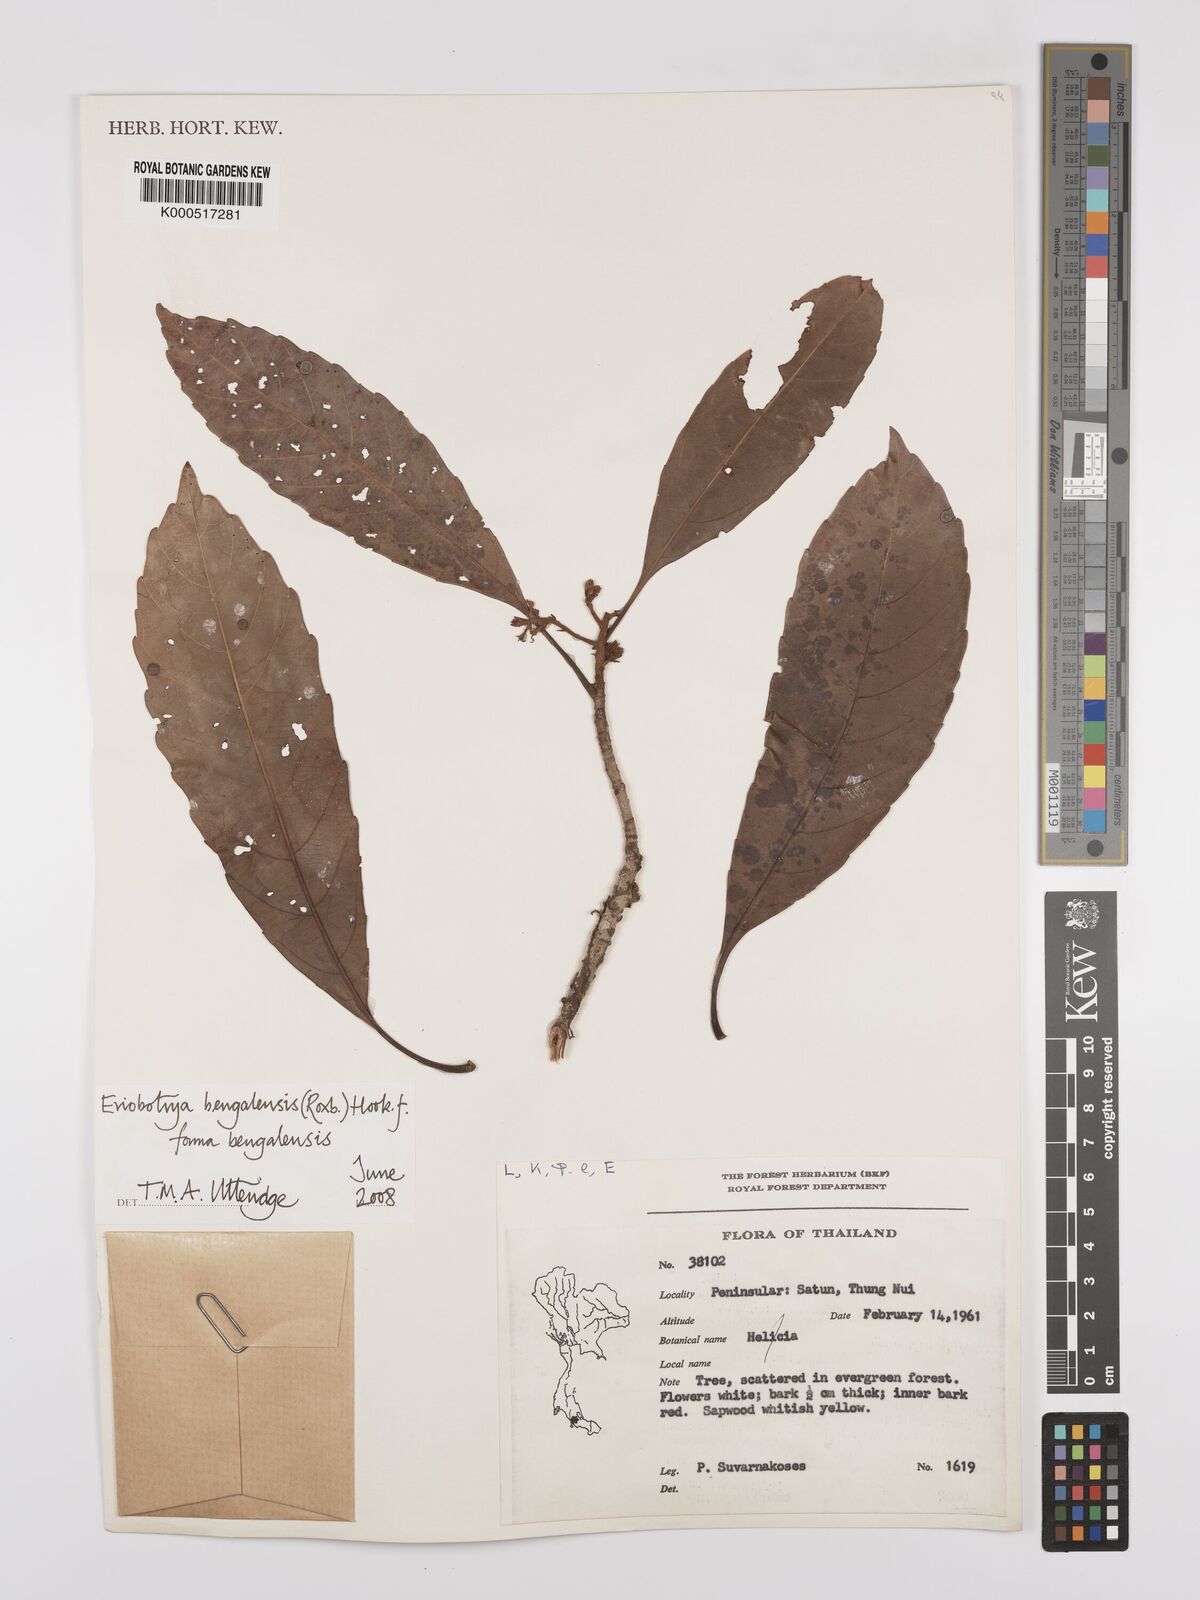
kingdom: Plantae
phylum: Tracheophyta
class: Magnoliopsida
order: Rosales
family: Rosaceae
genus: Rhaphiolepis
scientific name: Rhaphiolepis
